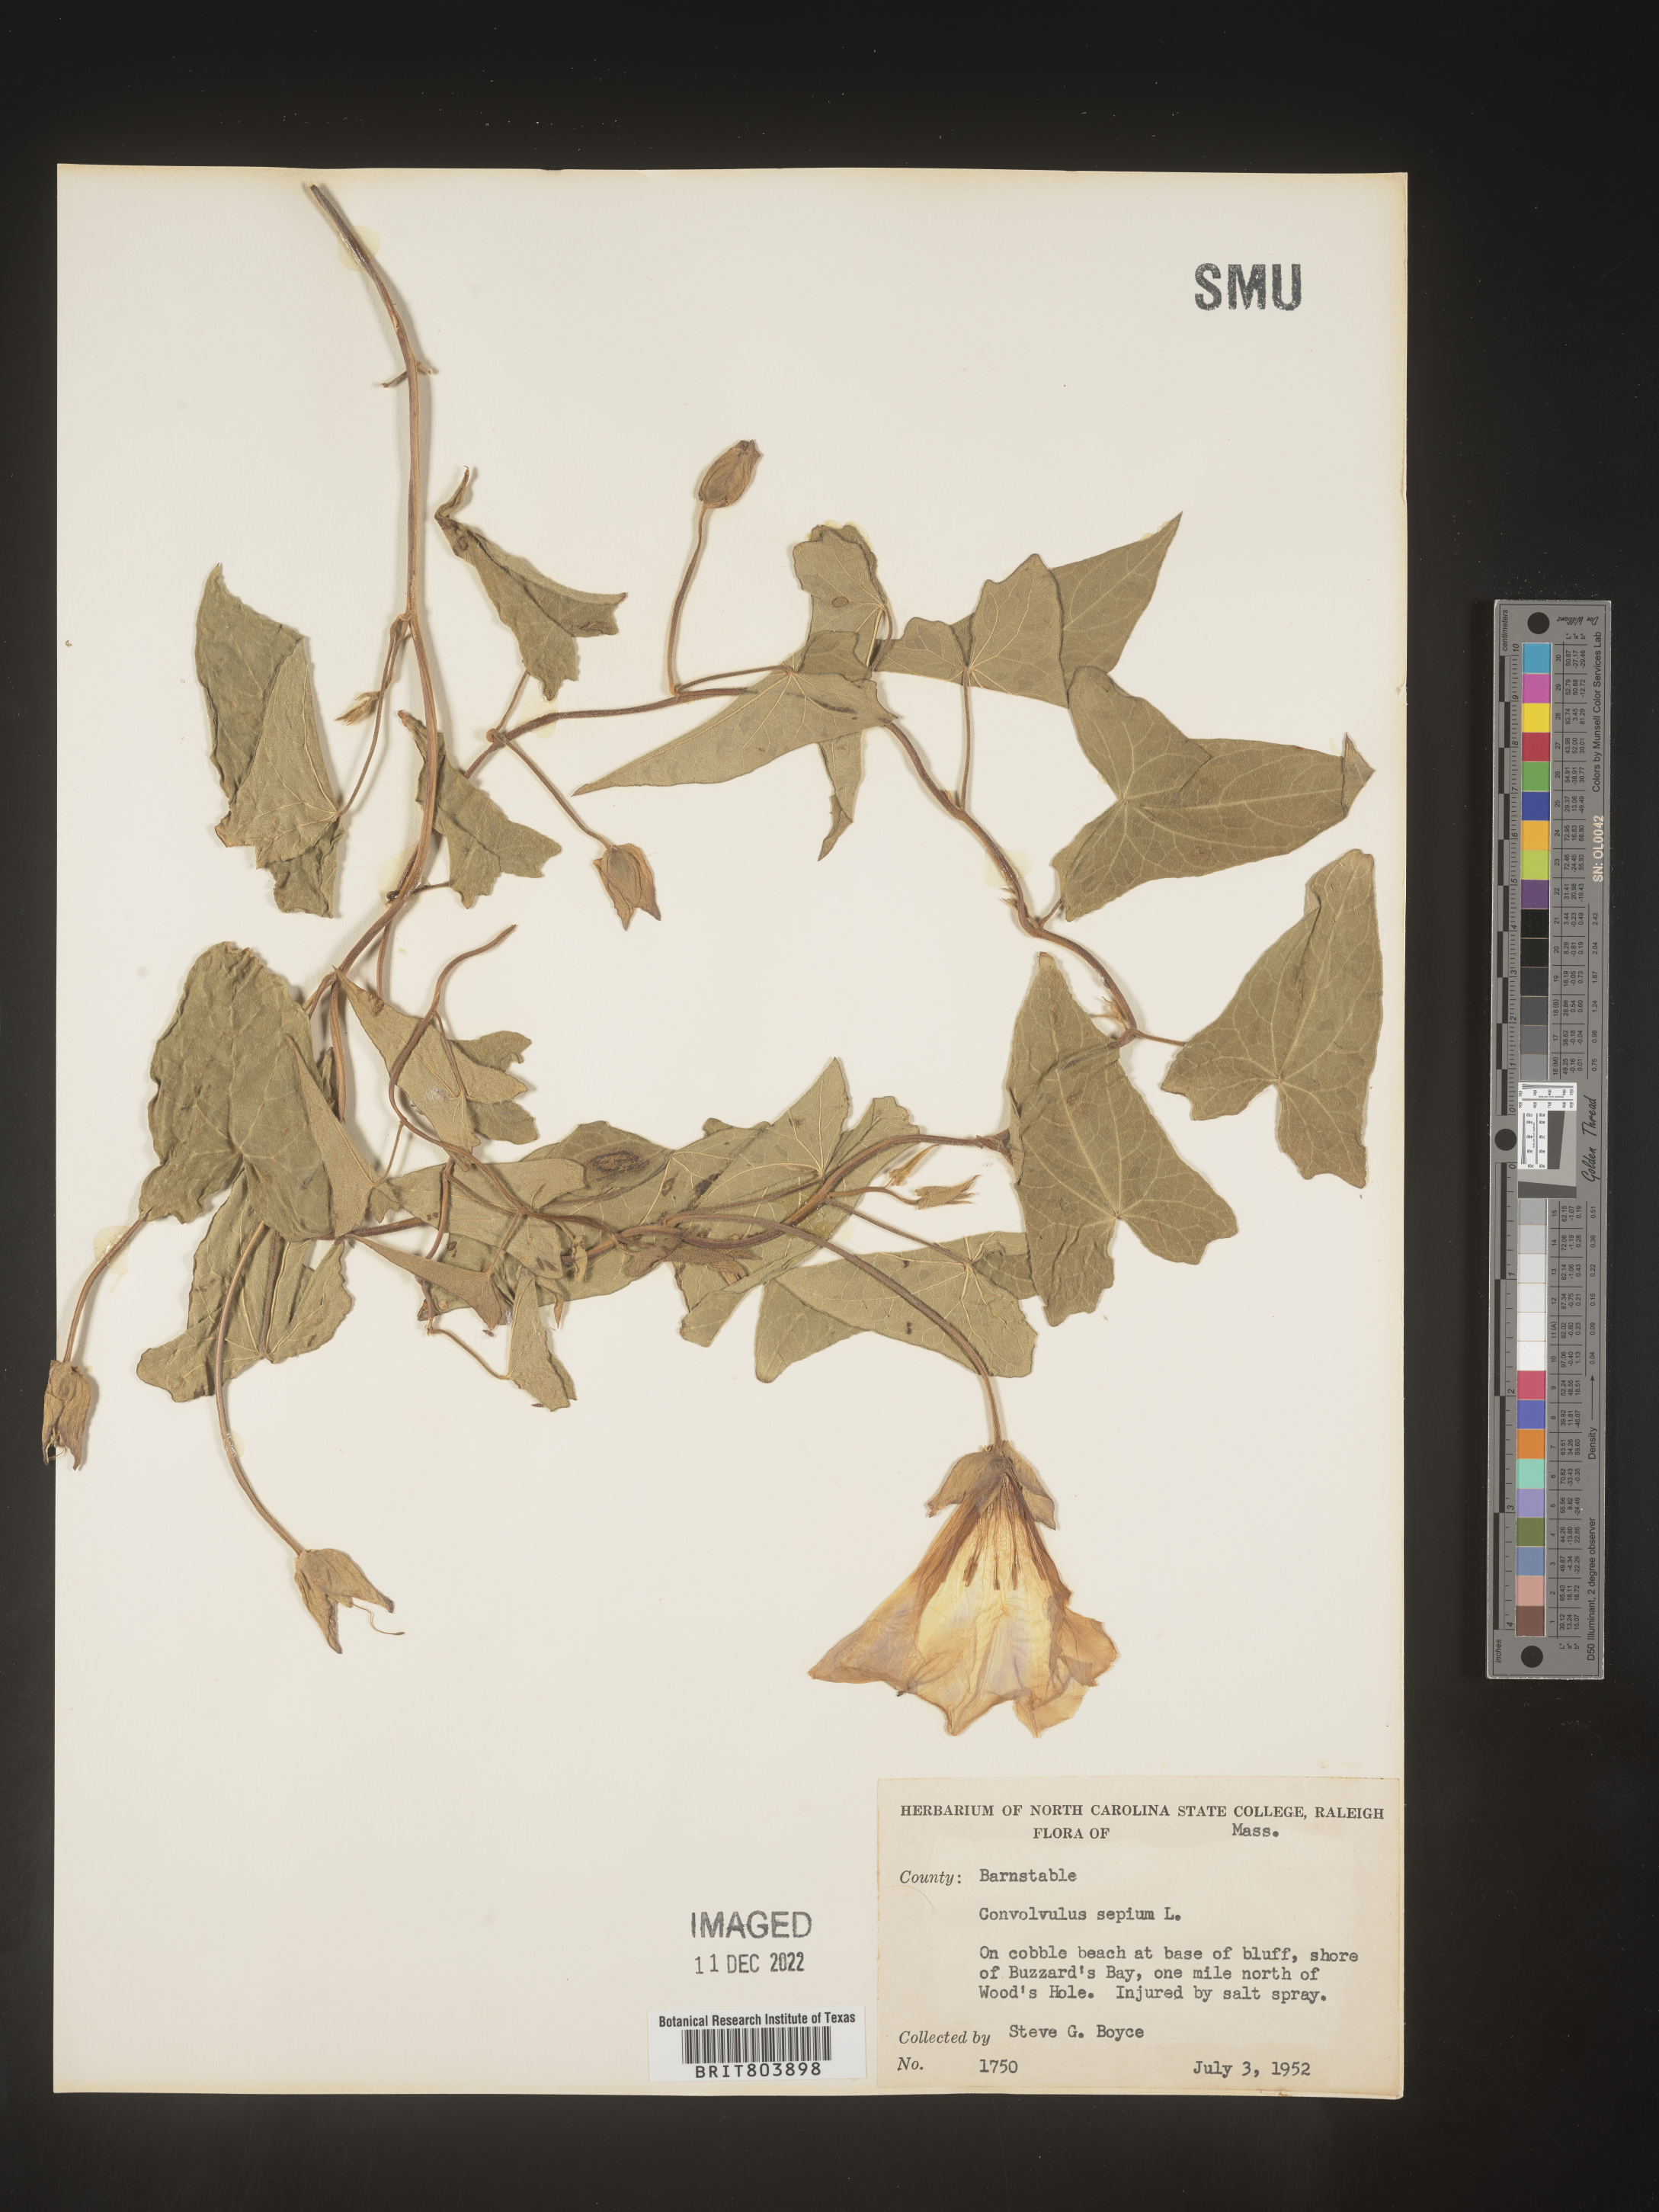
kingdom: Plantae
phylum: Tracheophyta
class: Magnoliopsida
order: Solanales
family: Convolvulaceae
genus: Calystegia
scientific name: Calystegia sepium
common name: Hedge bindweed
